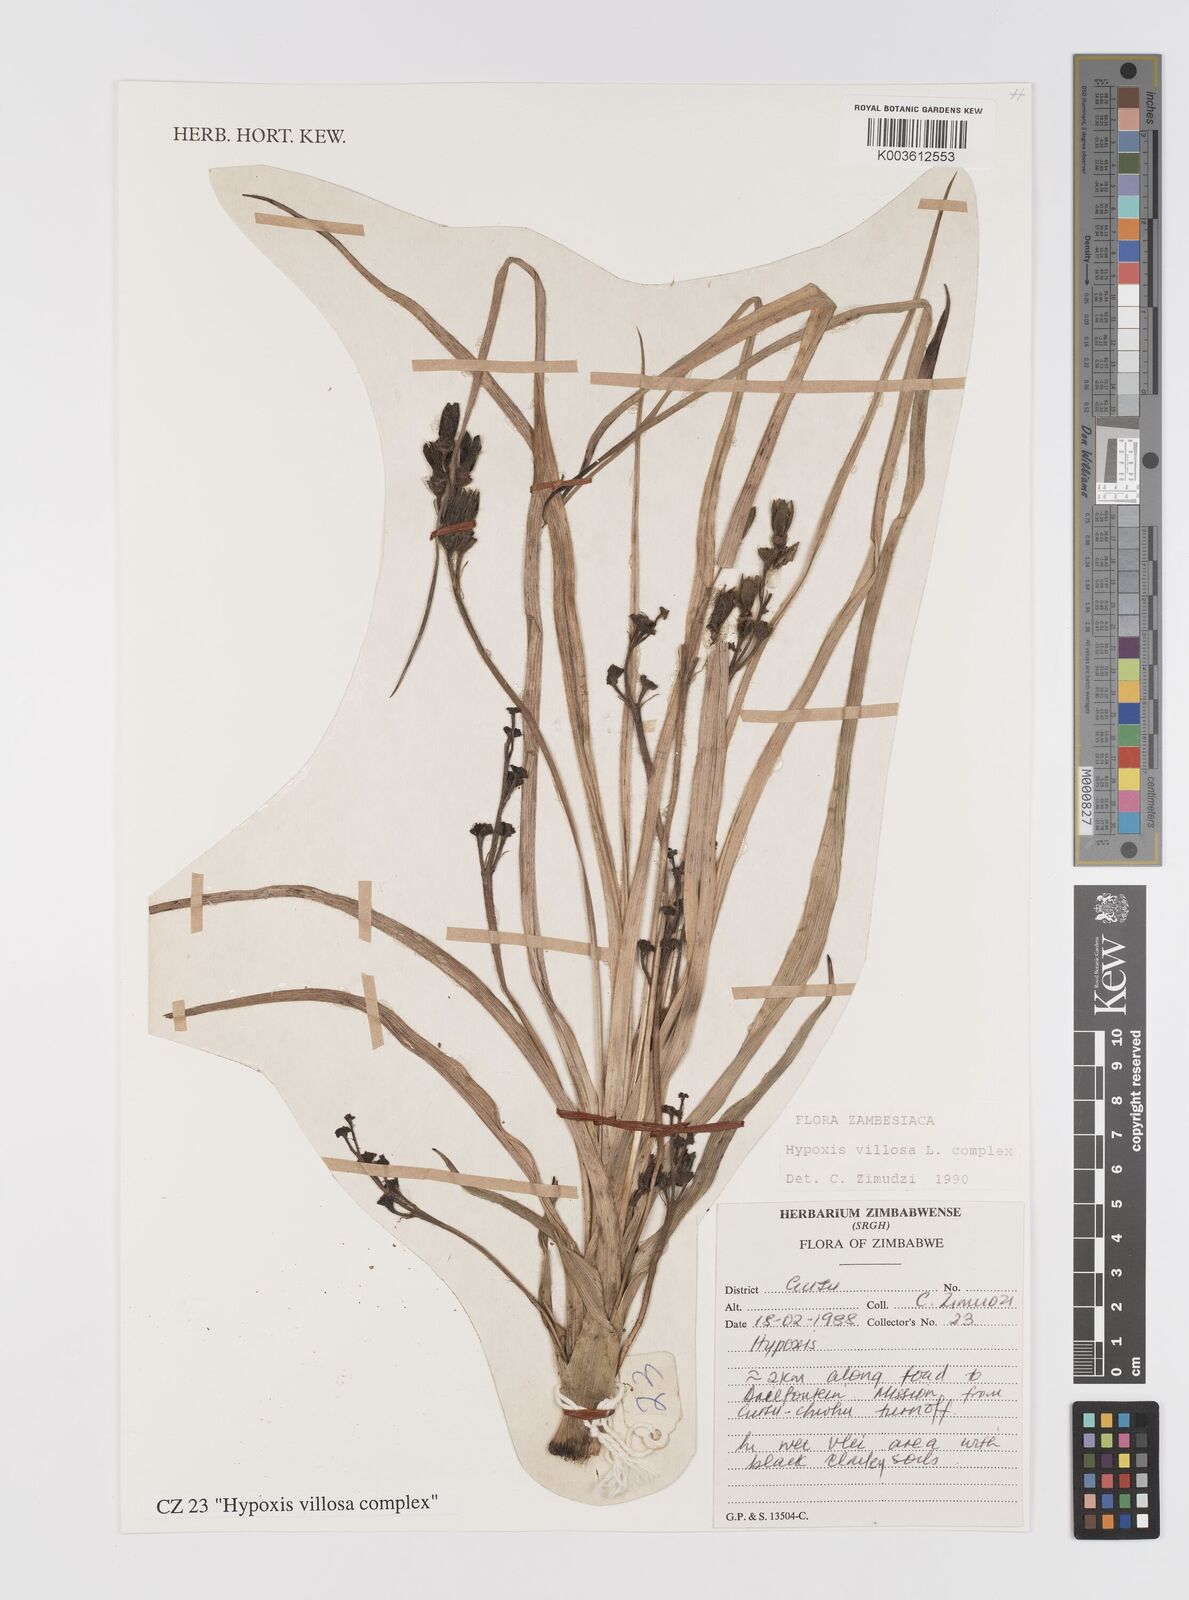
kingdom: Plantae
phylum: Tracheophyta
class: Liliopsida
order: Asparagales
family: Hypoxidaceae
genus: Hypoxis
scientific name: Hypoxis villosa
